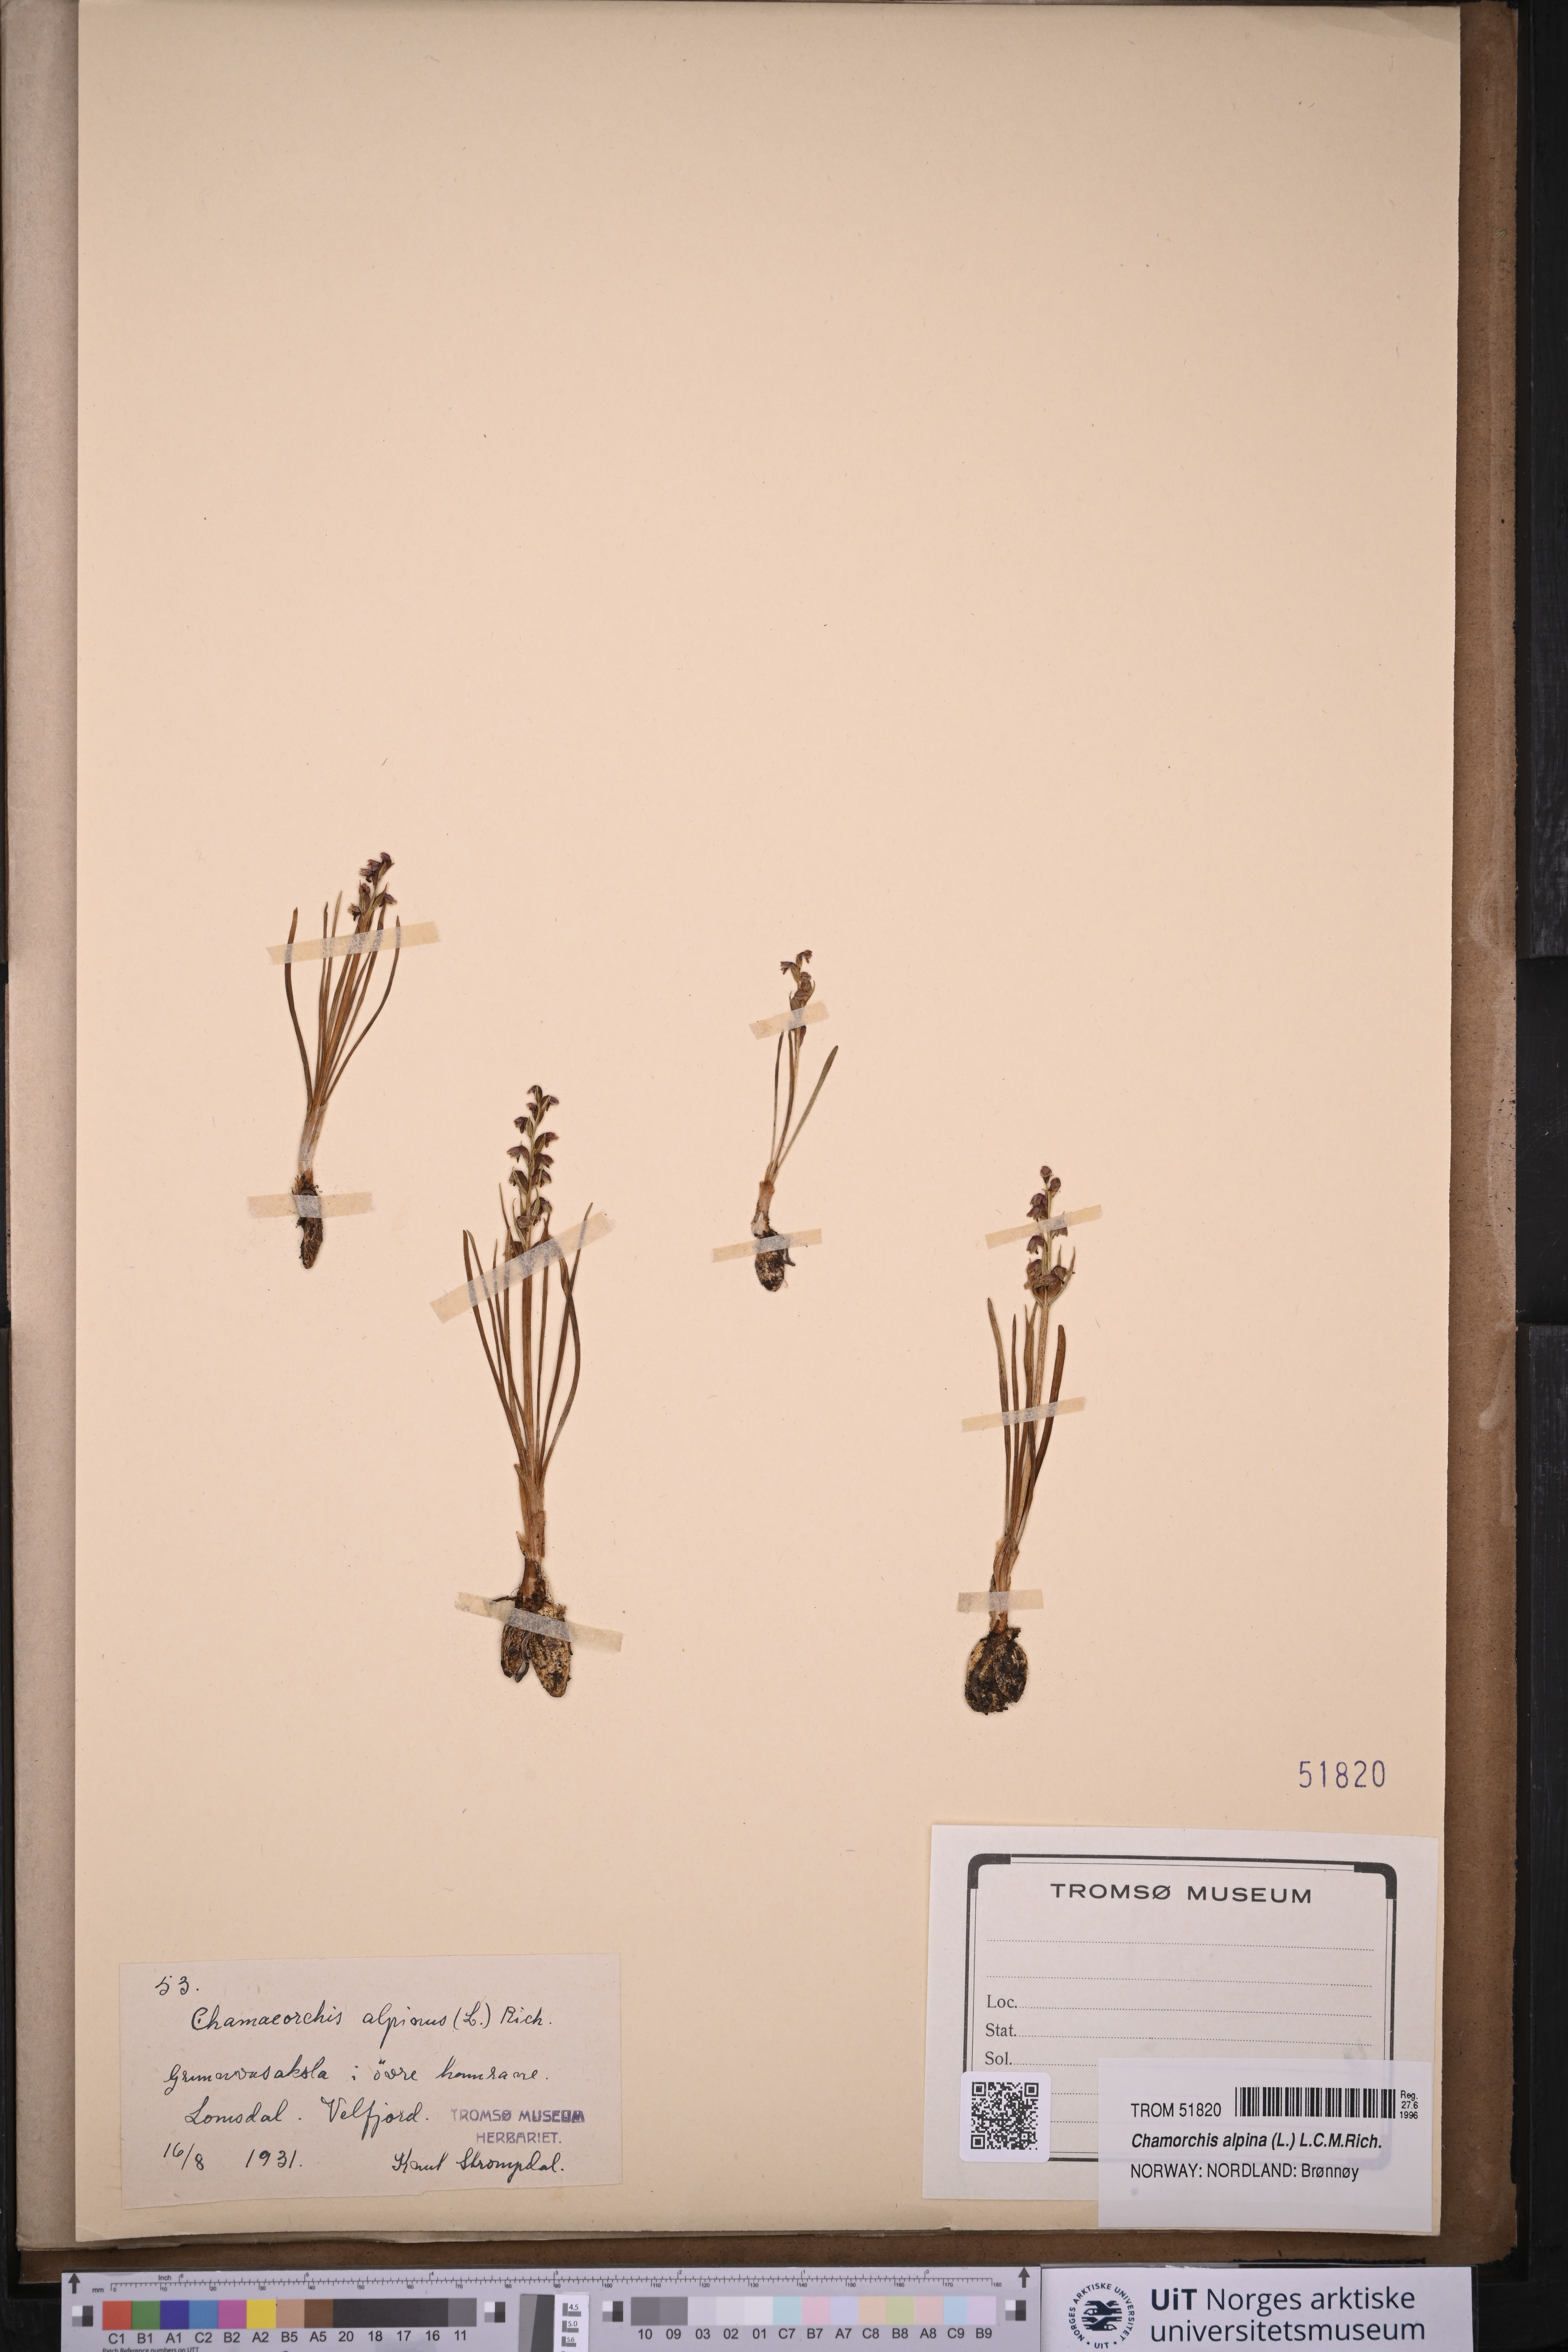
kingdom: Plantae
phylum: Tracheophyta
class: Liliopsida
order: Asparagales
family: Orchidaceae
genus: Chamorchis
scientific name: Chamorchis alpina
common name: Alpine chamorchis
